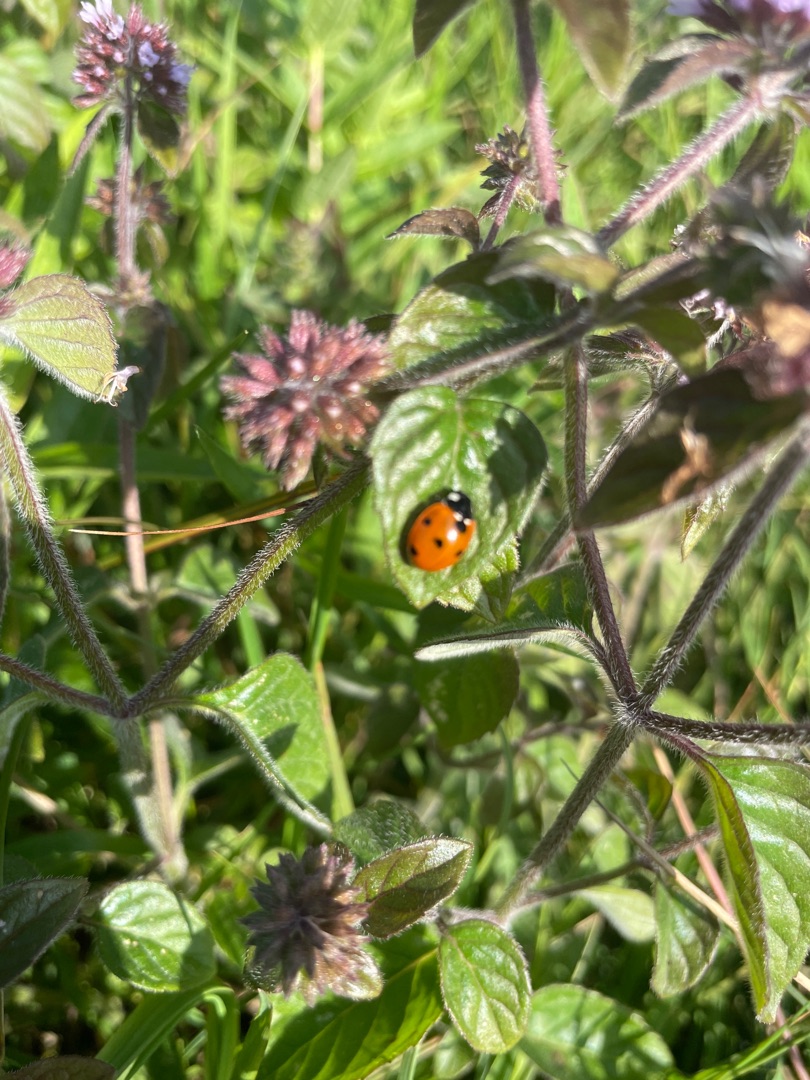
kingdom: Animalia
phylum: Arthropoda
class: Insecta
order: Coleoptera
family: Coccinellidae
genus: Coccinella
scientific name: Coccinella septempunctata
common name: Syvplettet mariehøne
